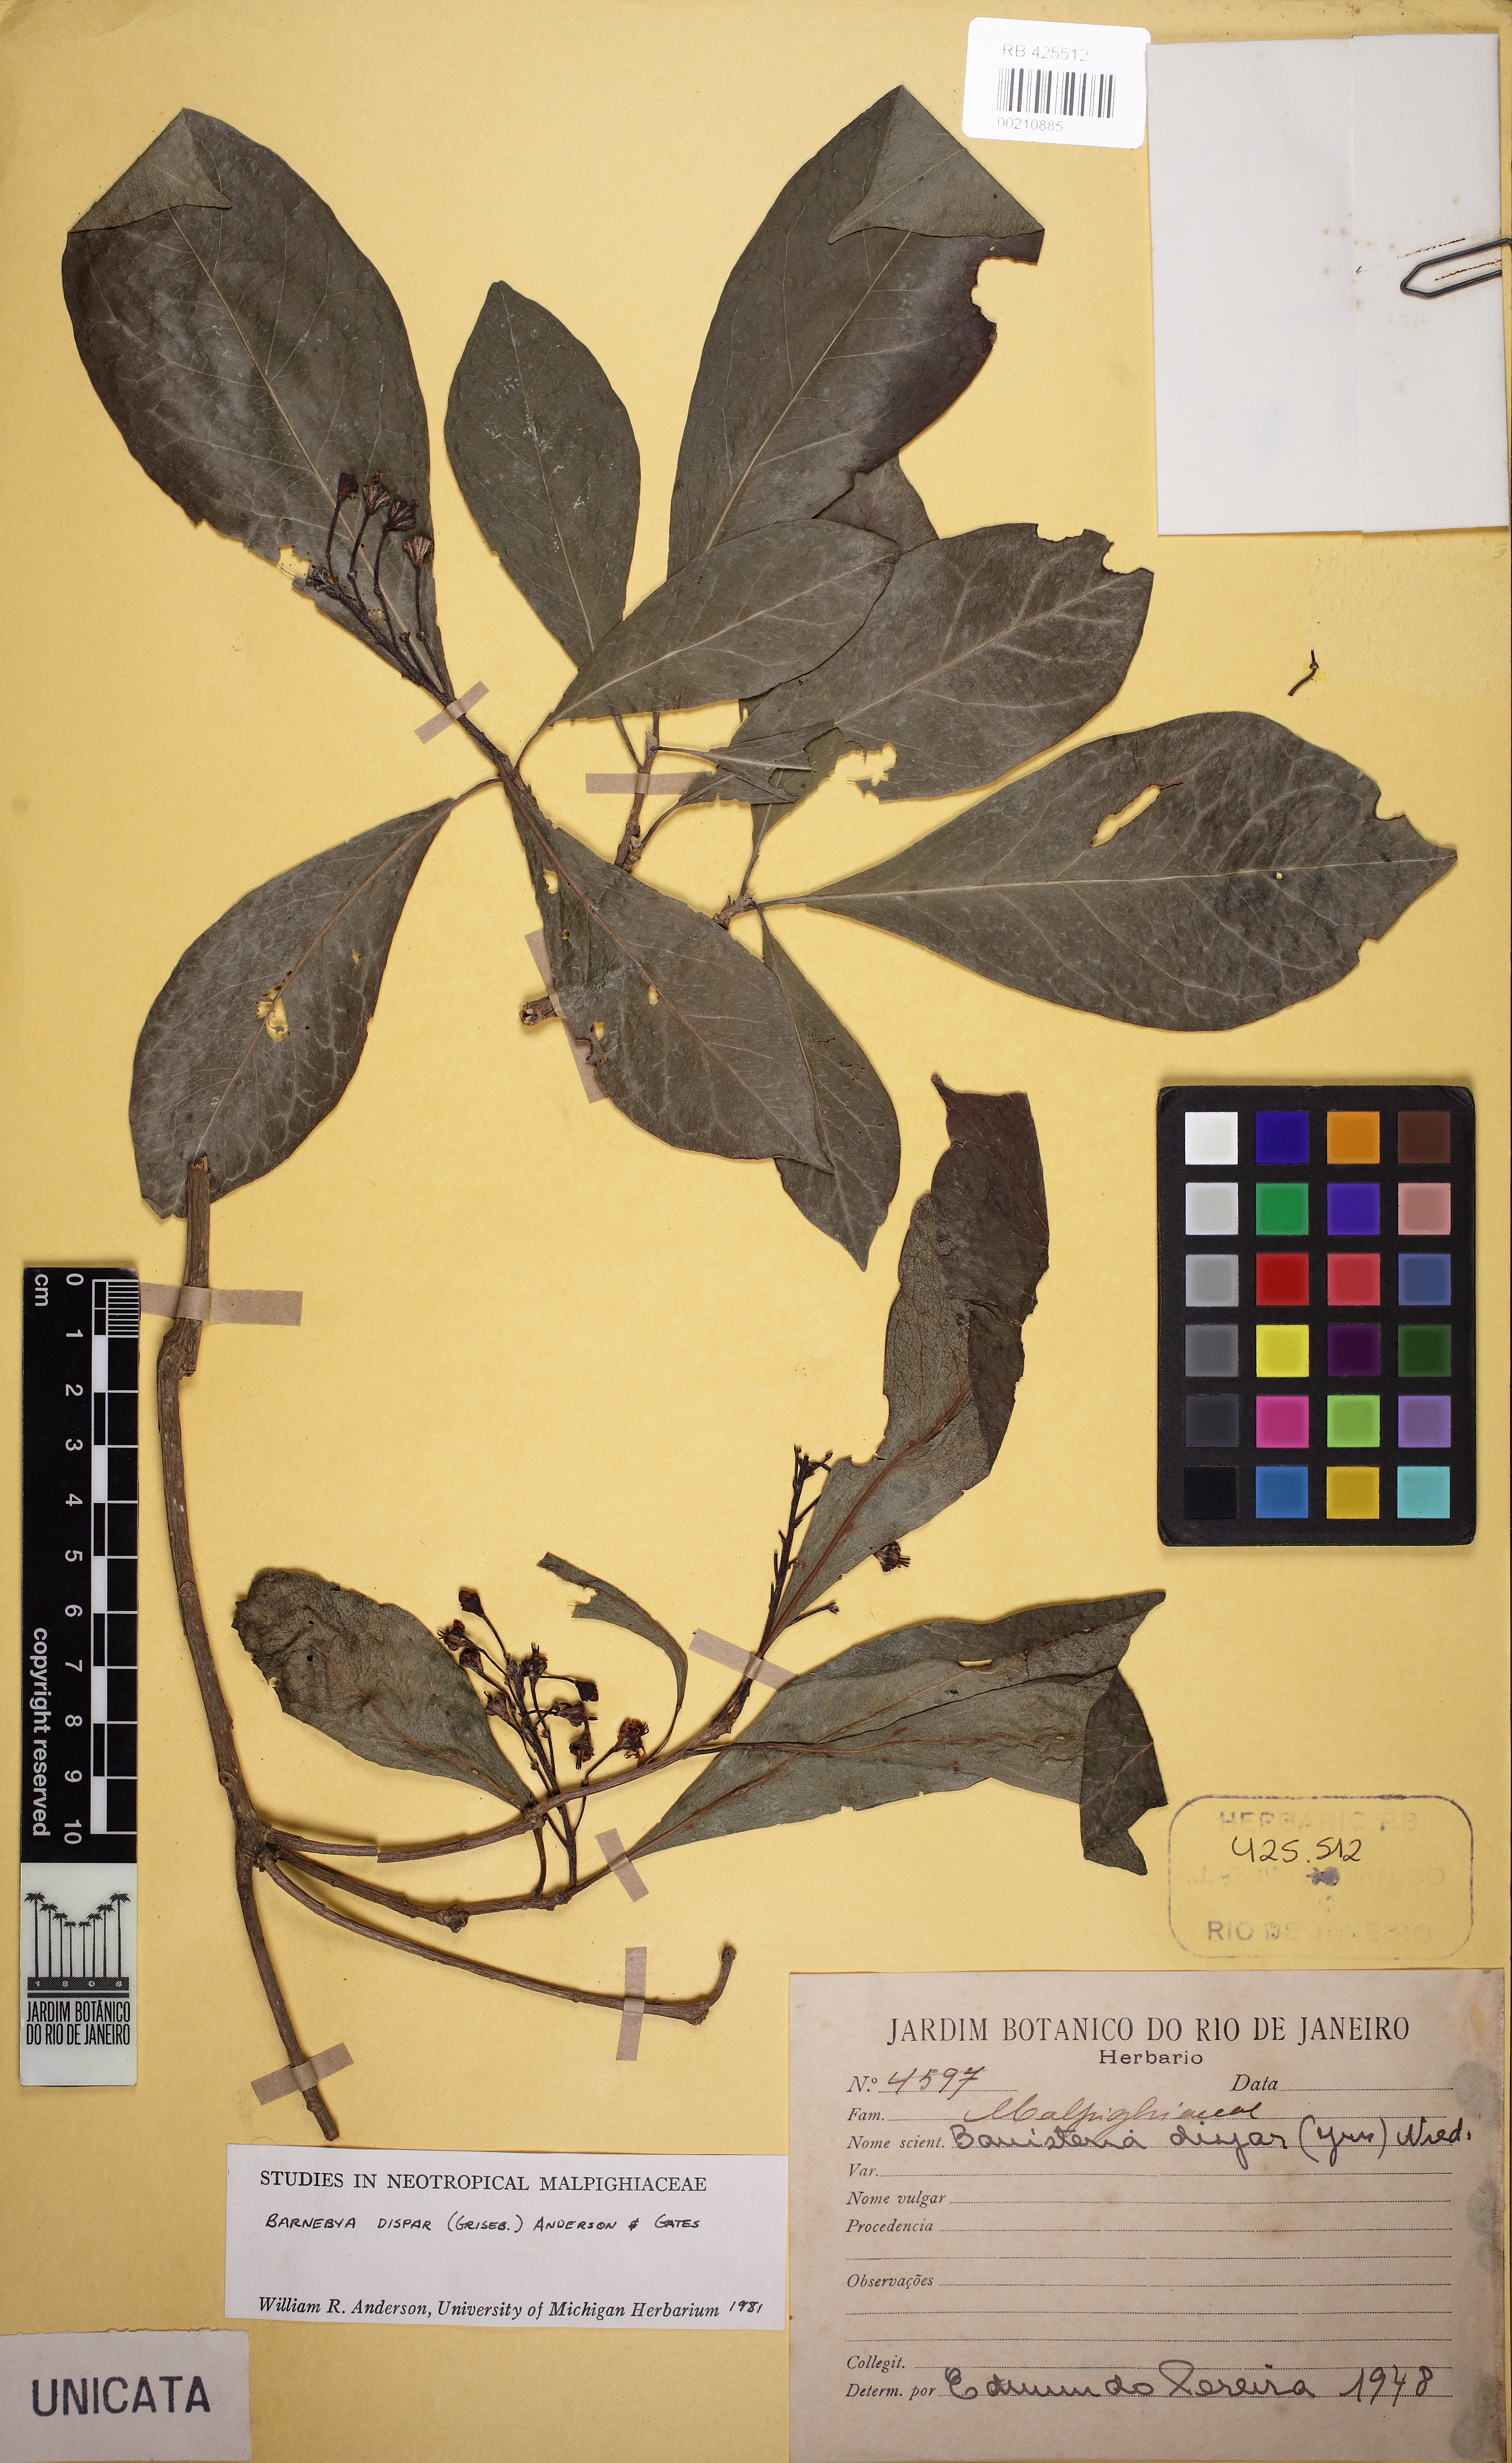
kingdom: Plantae
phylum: Tracheophyta
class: Magnoliopsida
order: Malpighiales
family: Malpighiaceae
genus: Barnebya
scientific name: Barnebya dispar
